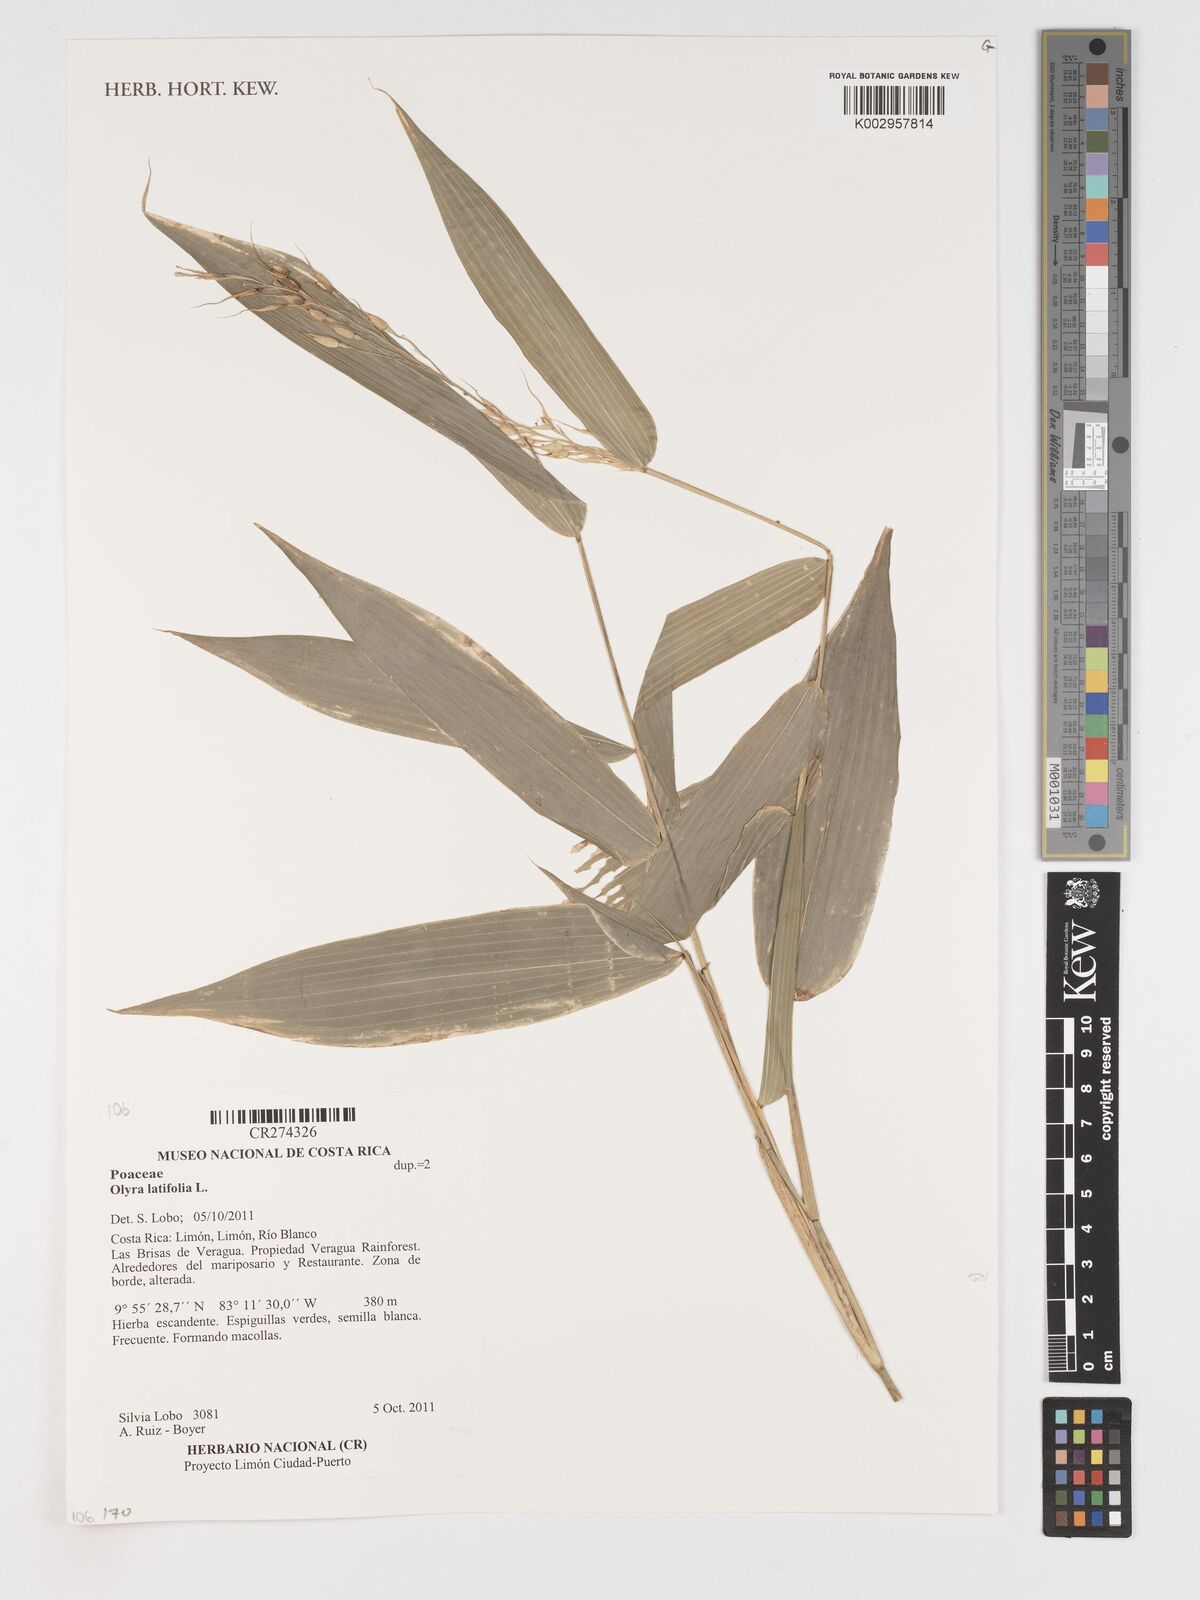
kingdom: Plantae
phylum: Tracheophyta
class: Liliopsida
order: Poales
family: Poaceae
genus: Olyra
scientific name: Olyra latifolia
